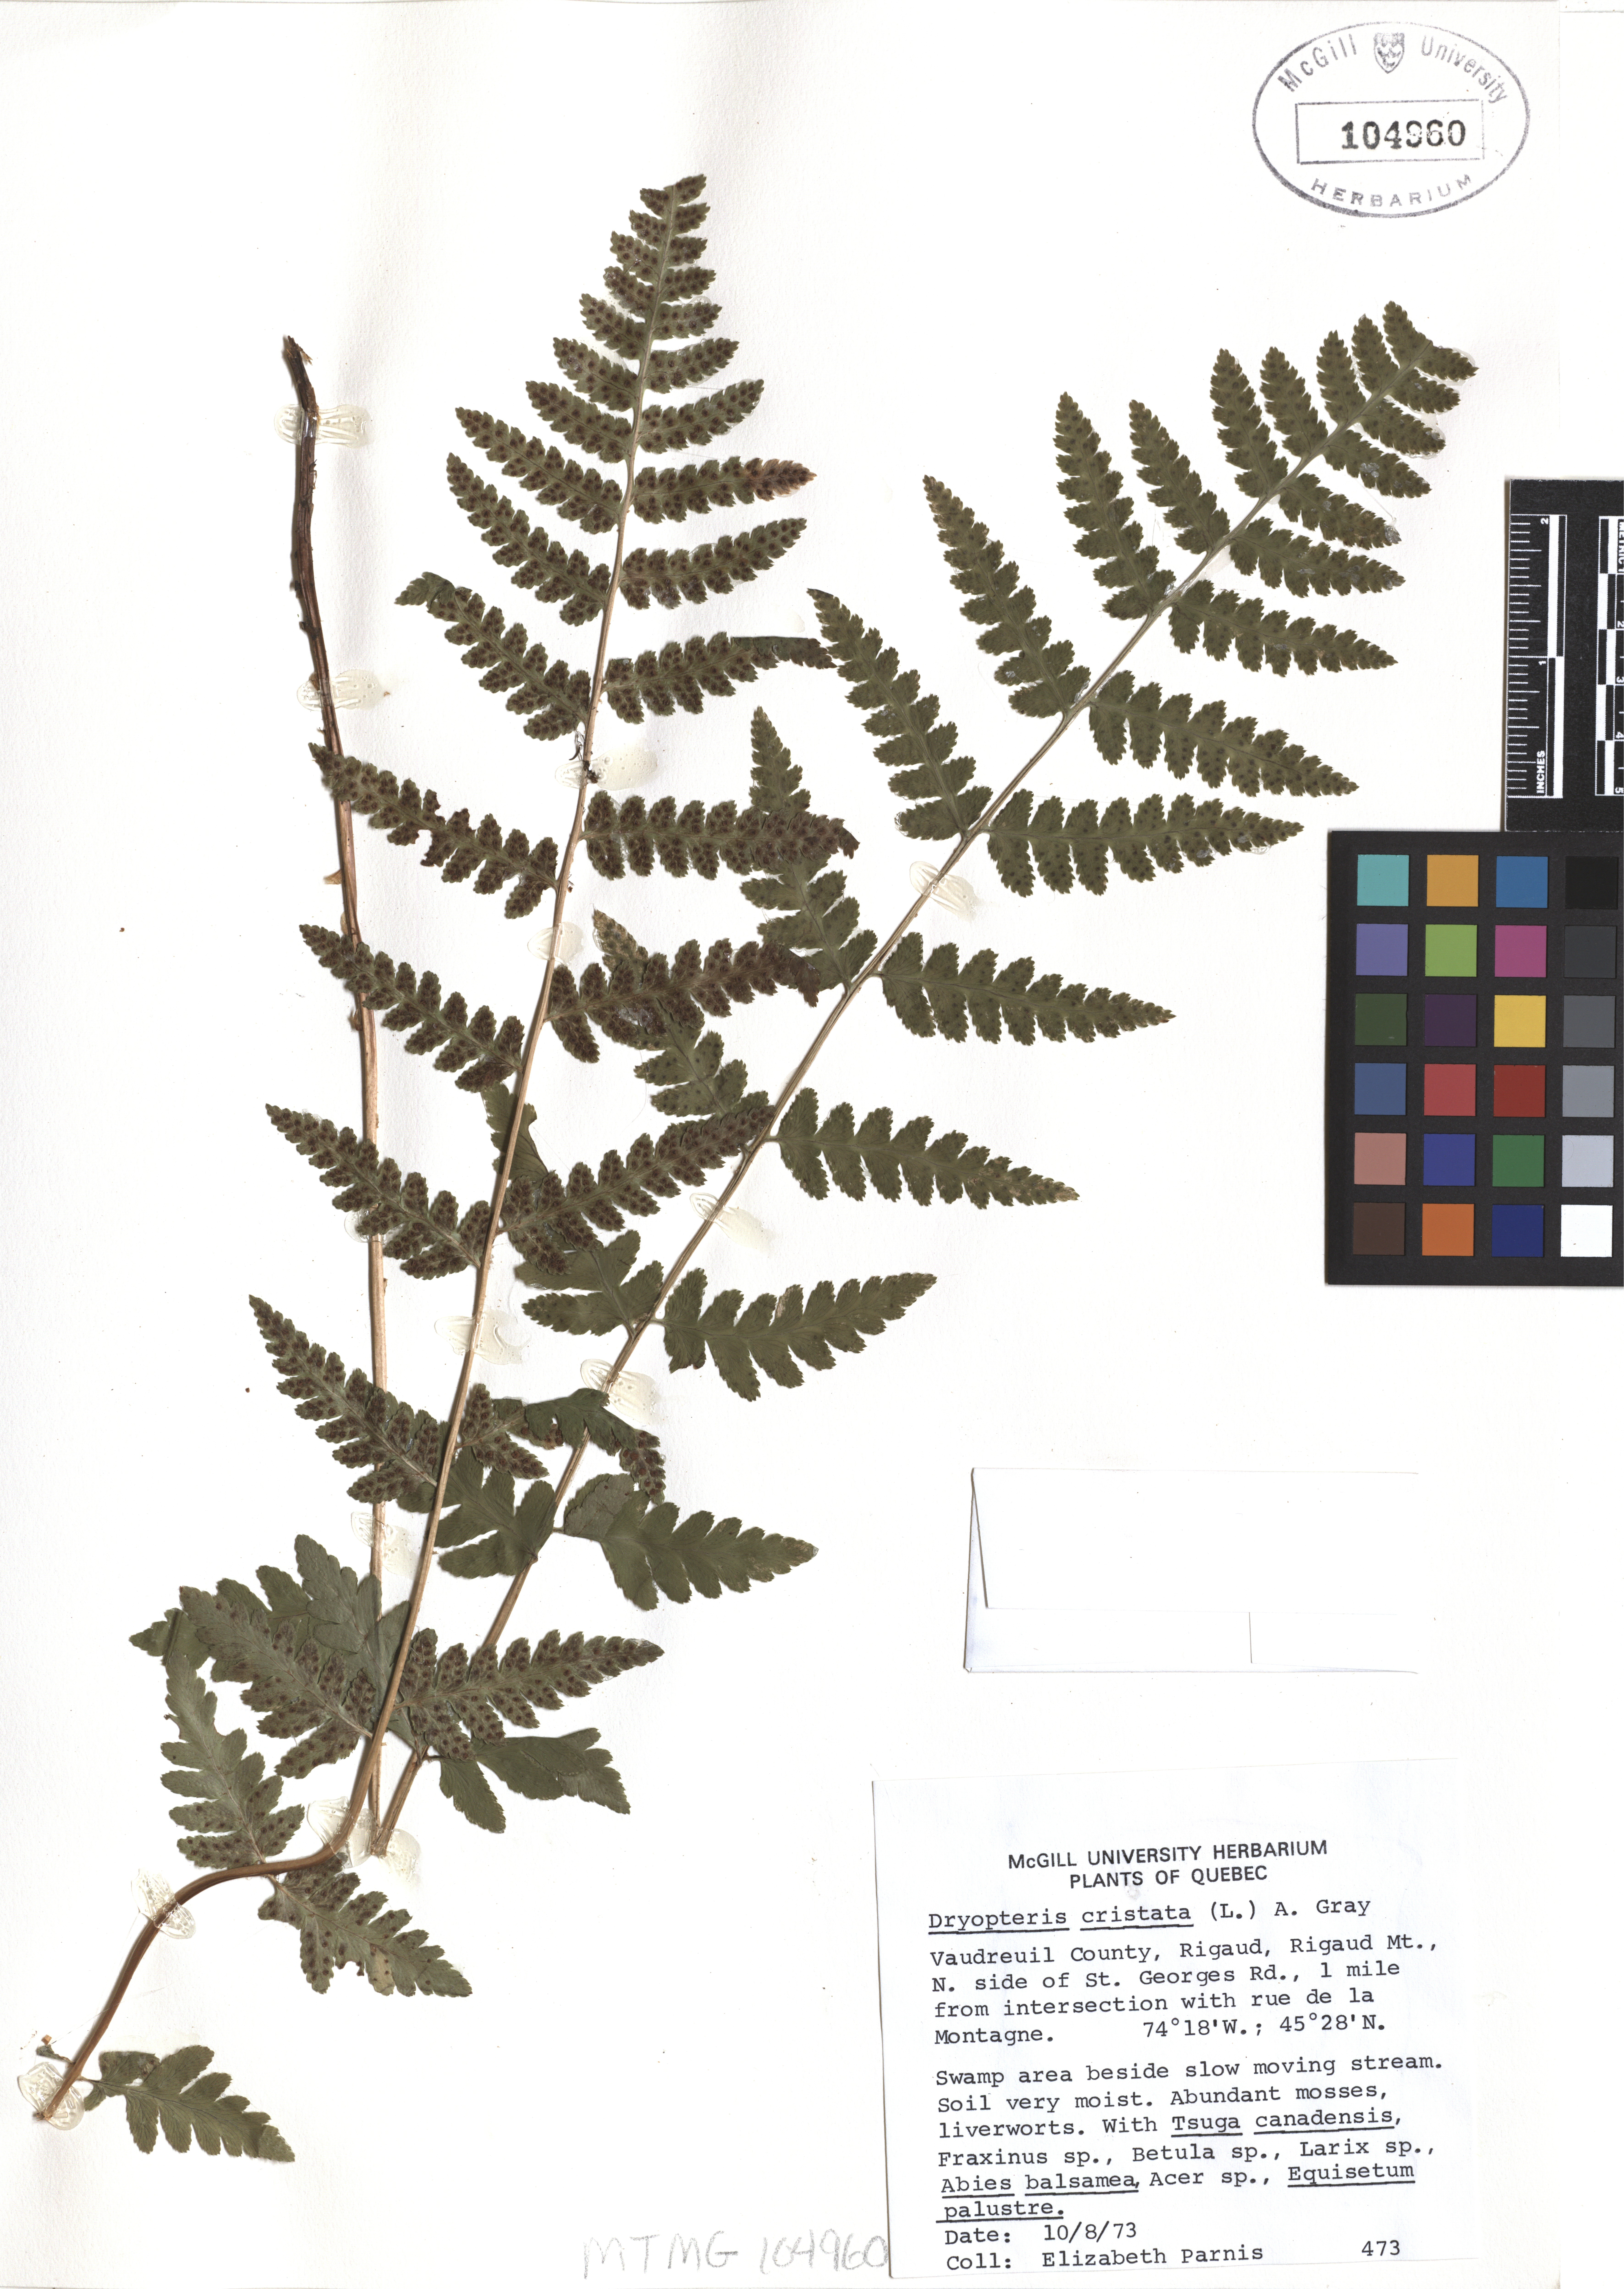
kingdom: Plantae
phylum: Tracheophyta
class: Polypodiopsida
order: Polypodiales
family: Dryopteridaceae
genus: Dryopteris
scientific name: Dryopteris cristata
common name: Crested wood fern
